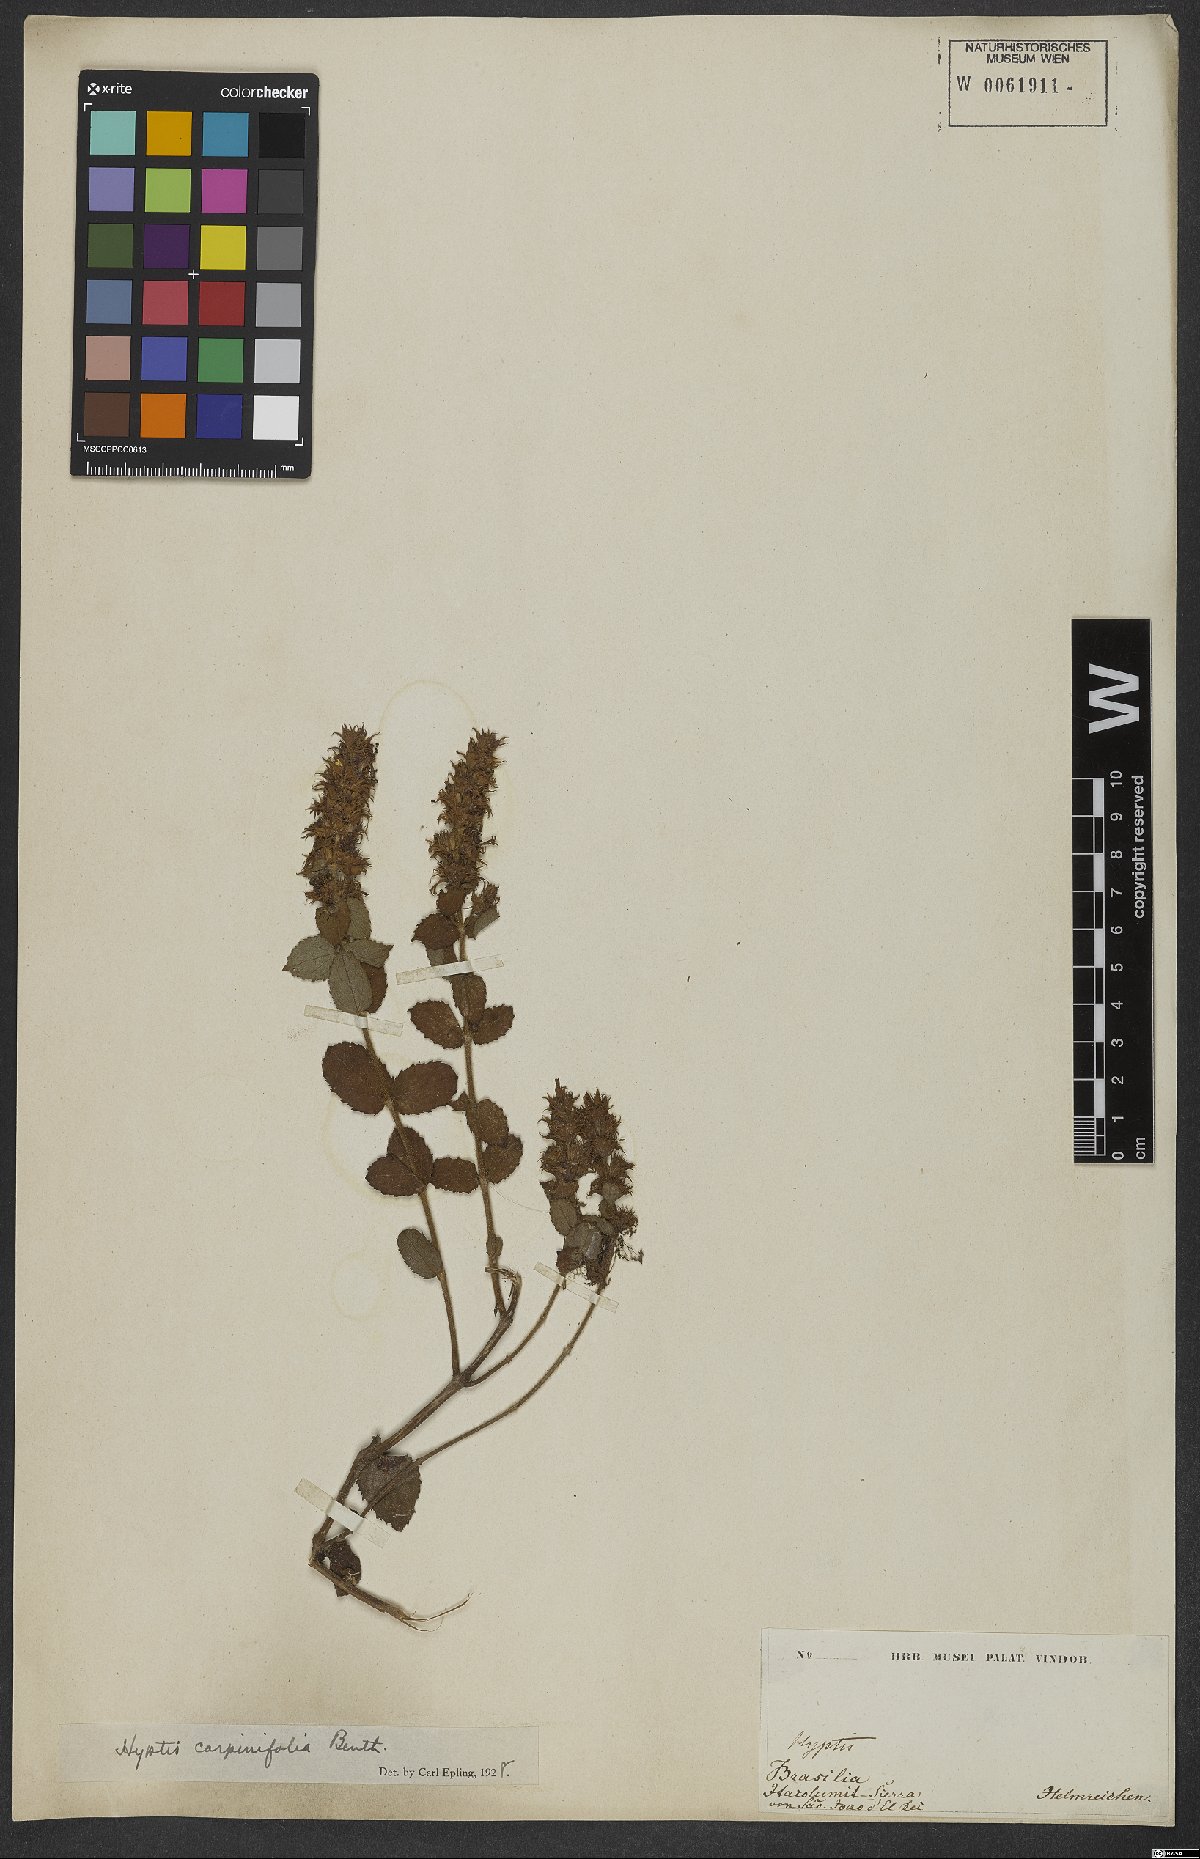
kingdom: Plantae
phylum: Tracheophyta
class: Magnoliopsida
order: Lamiales
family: Lamiaceae
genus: Cantinoa
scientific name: Cantinoa carpinifolia
